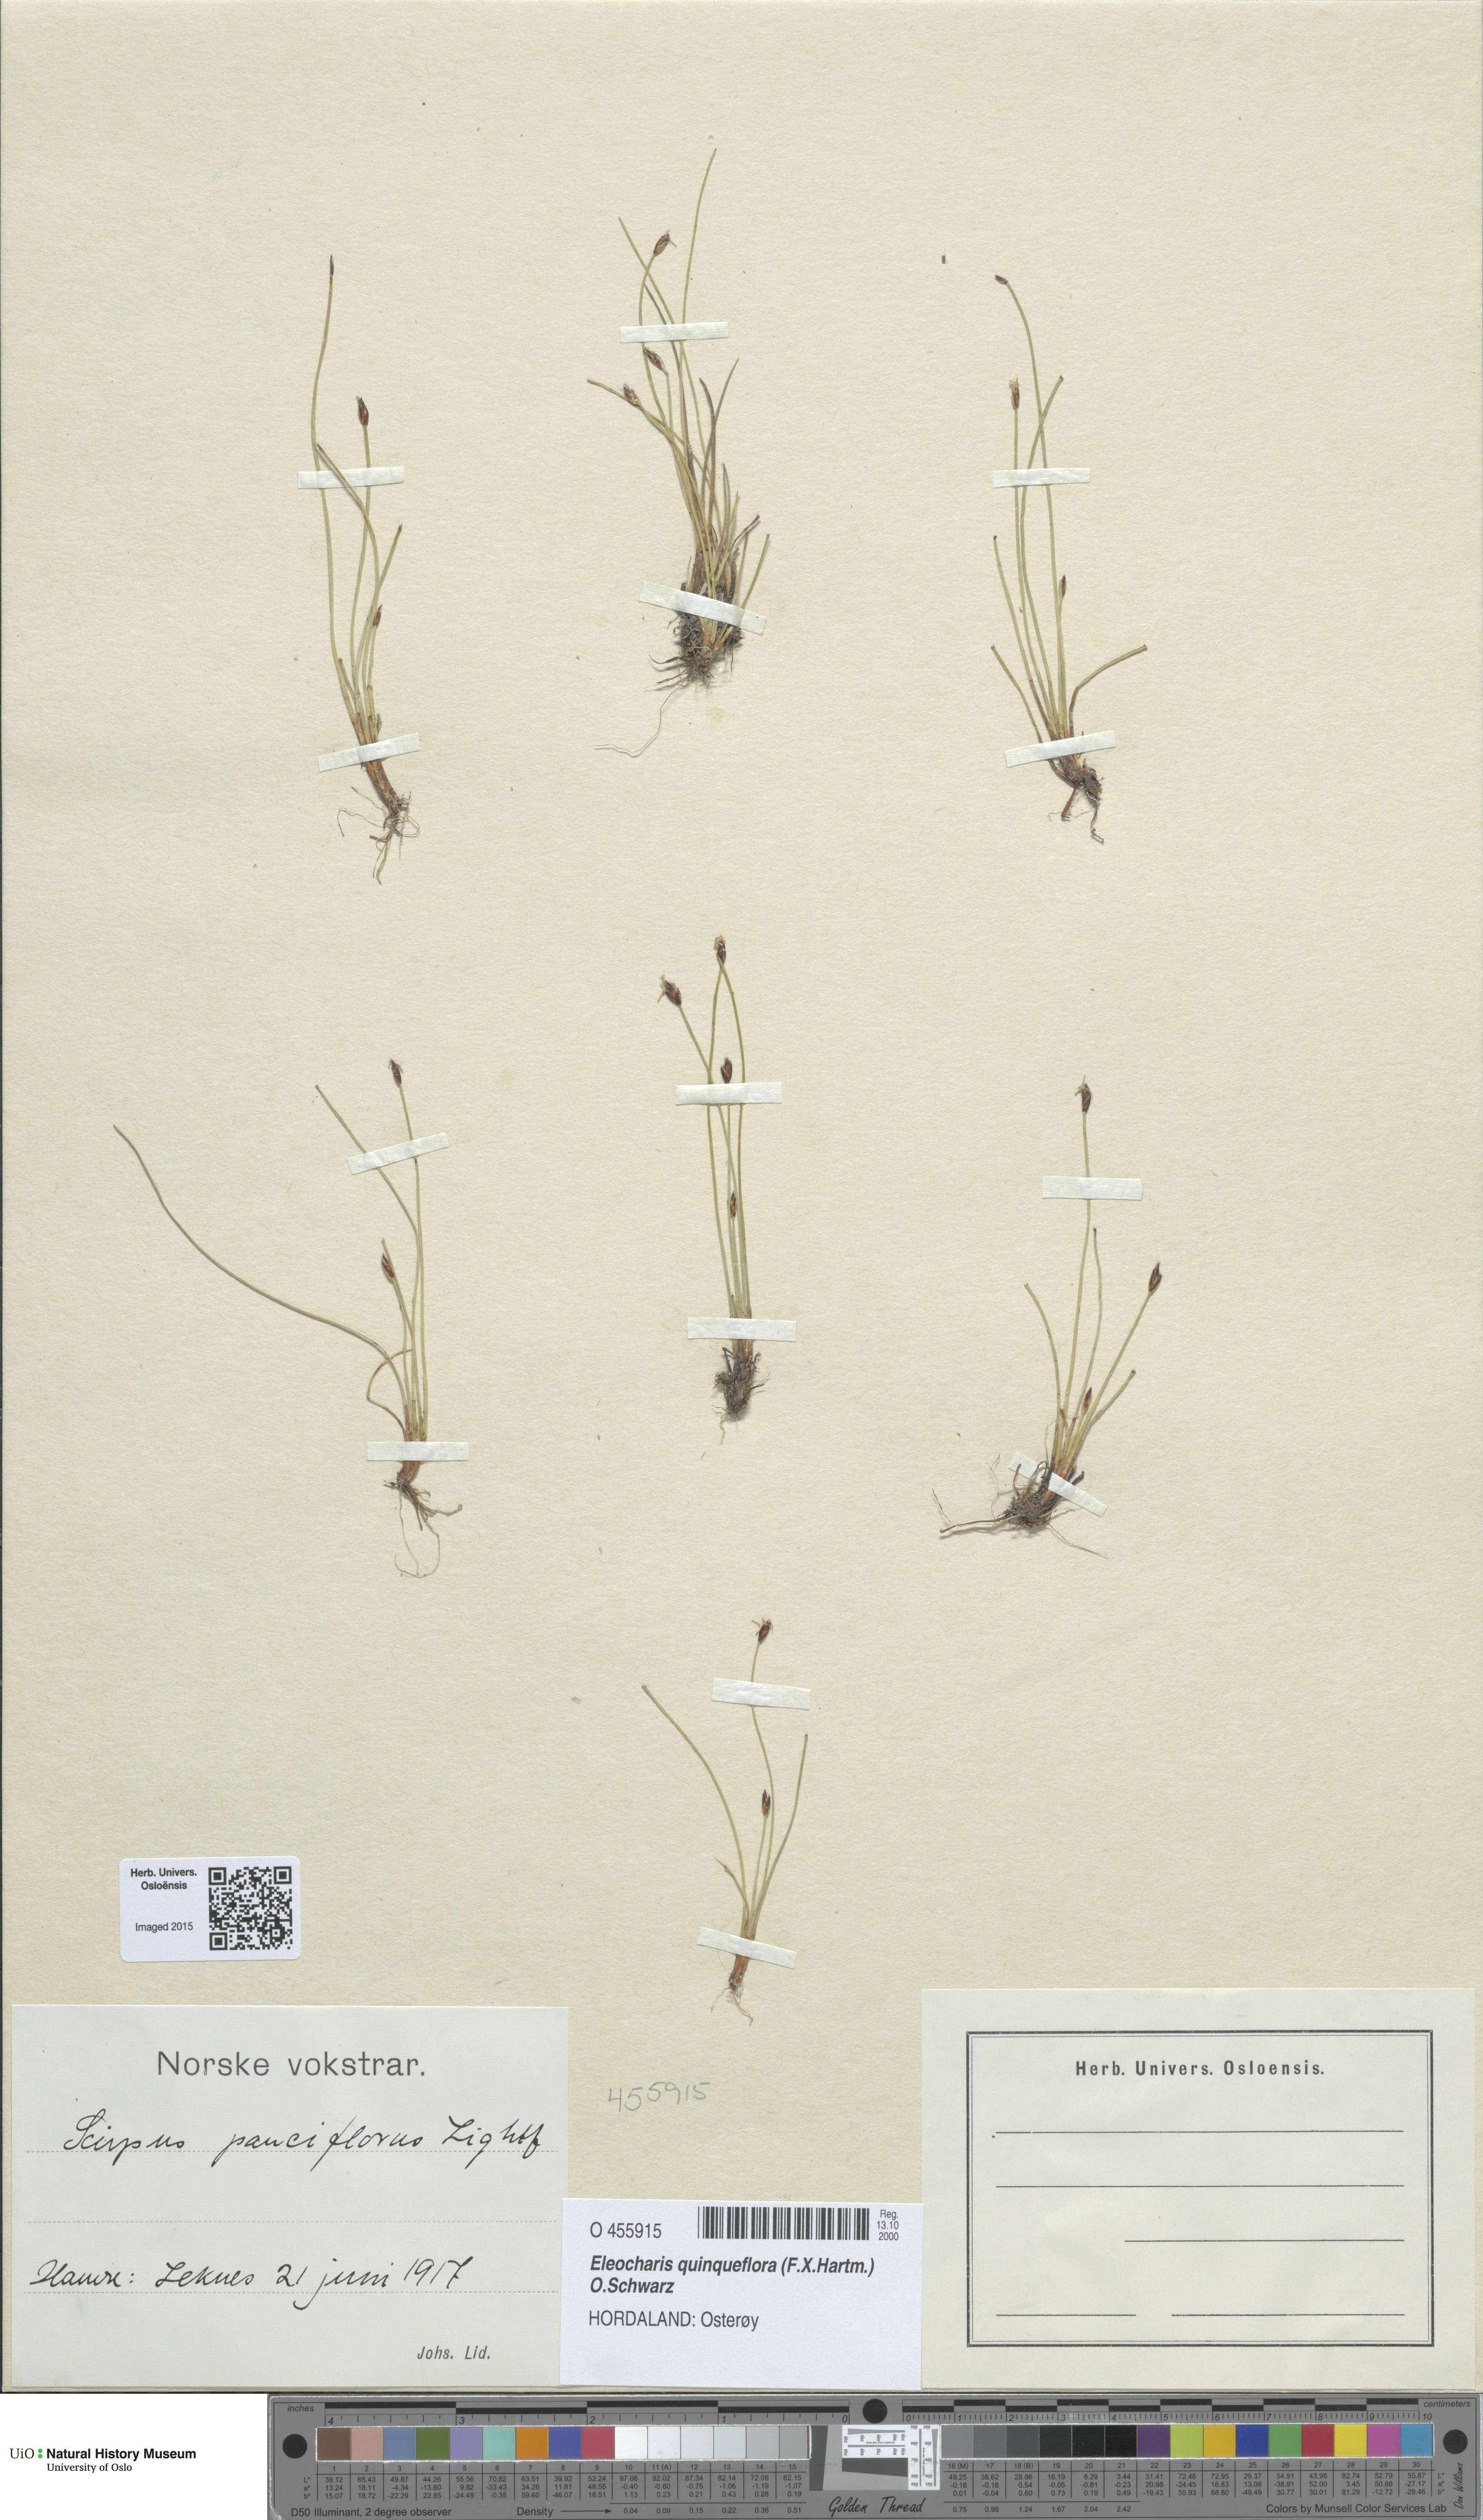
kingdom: Plantae
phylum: Tracheophyta
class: Liliopsida
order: Poales
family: Cyperaceae
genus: Eleocharis
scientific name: Eleocharis quinqueflora
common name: Few-flowered spike-rush
